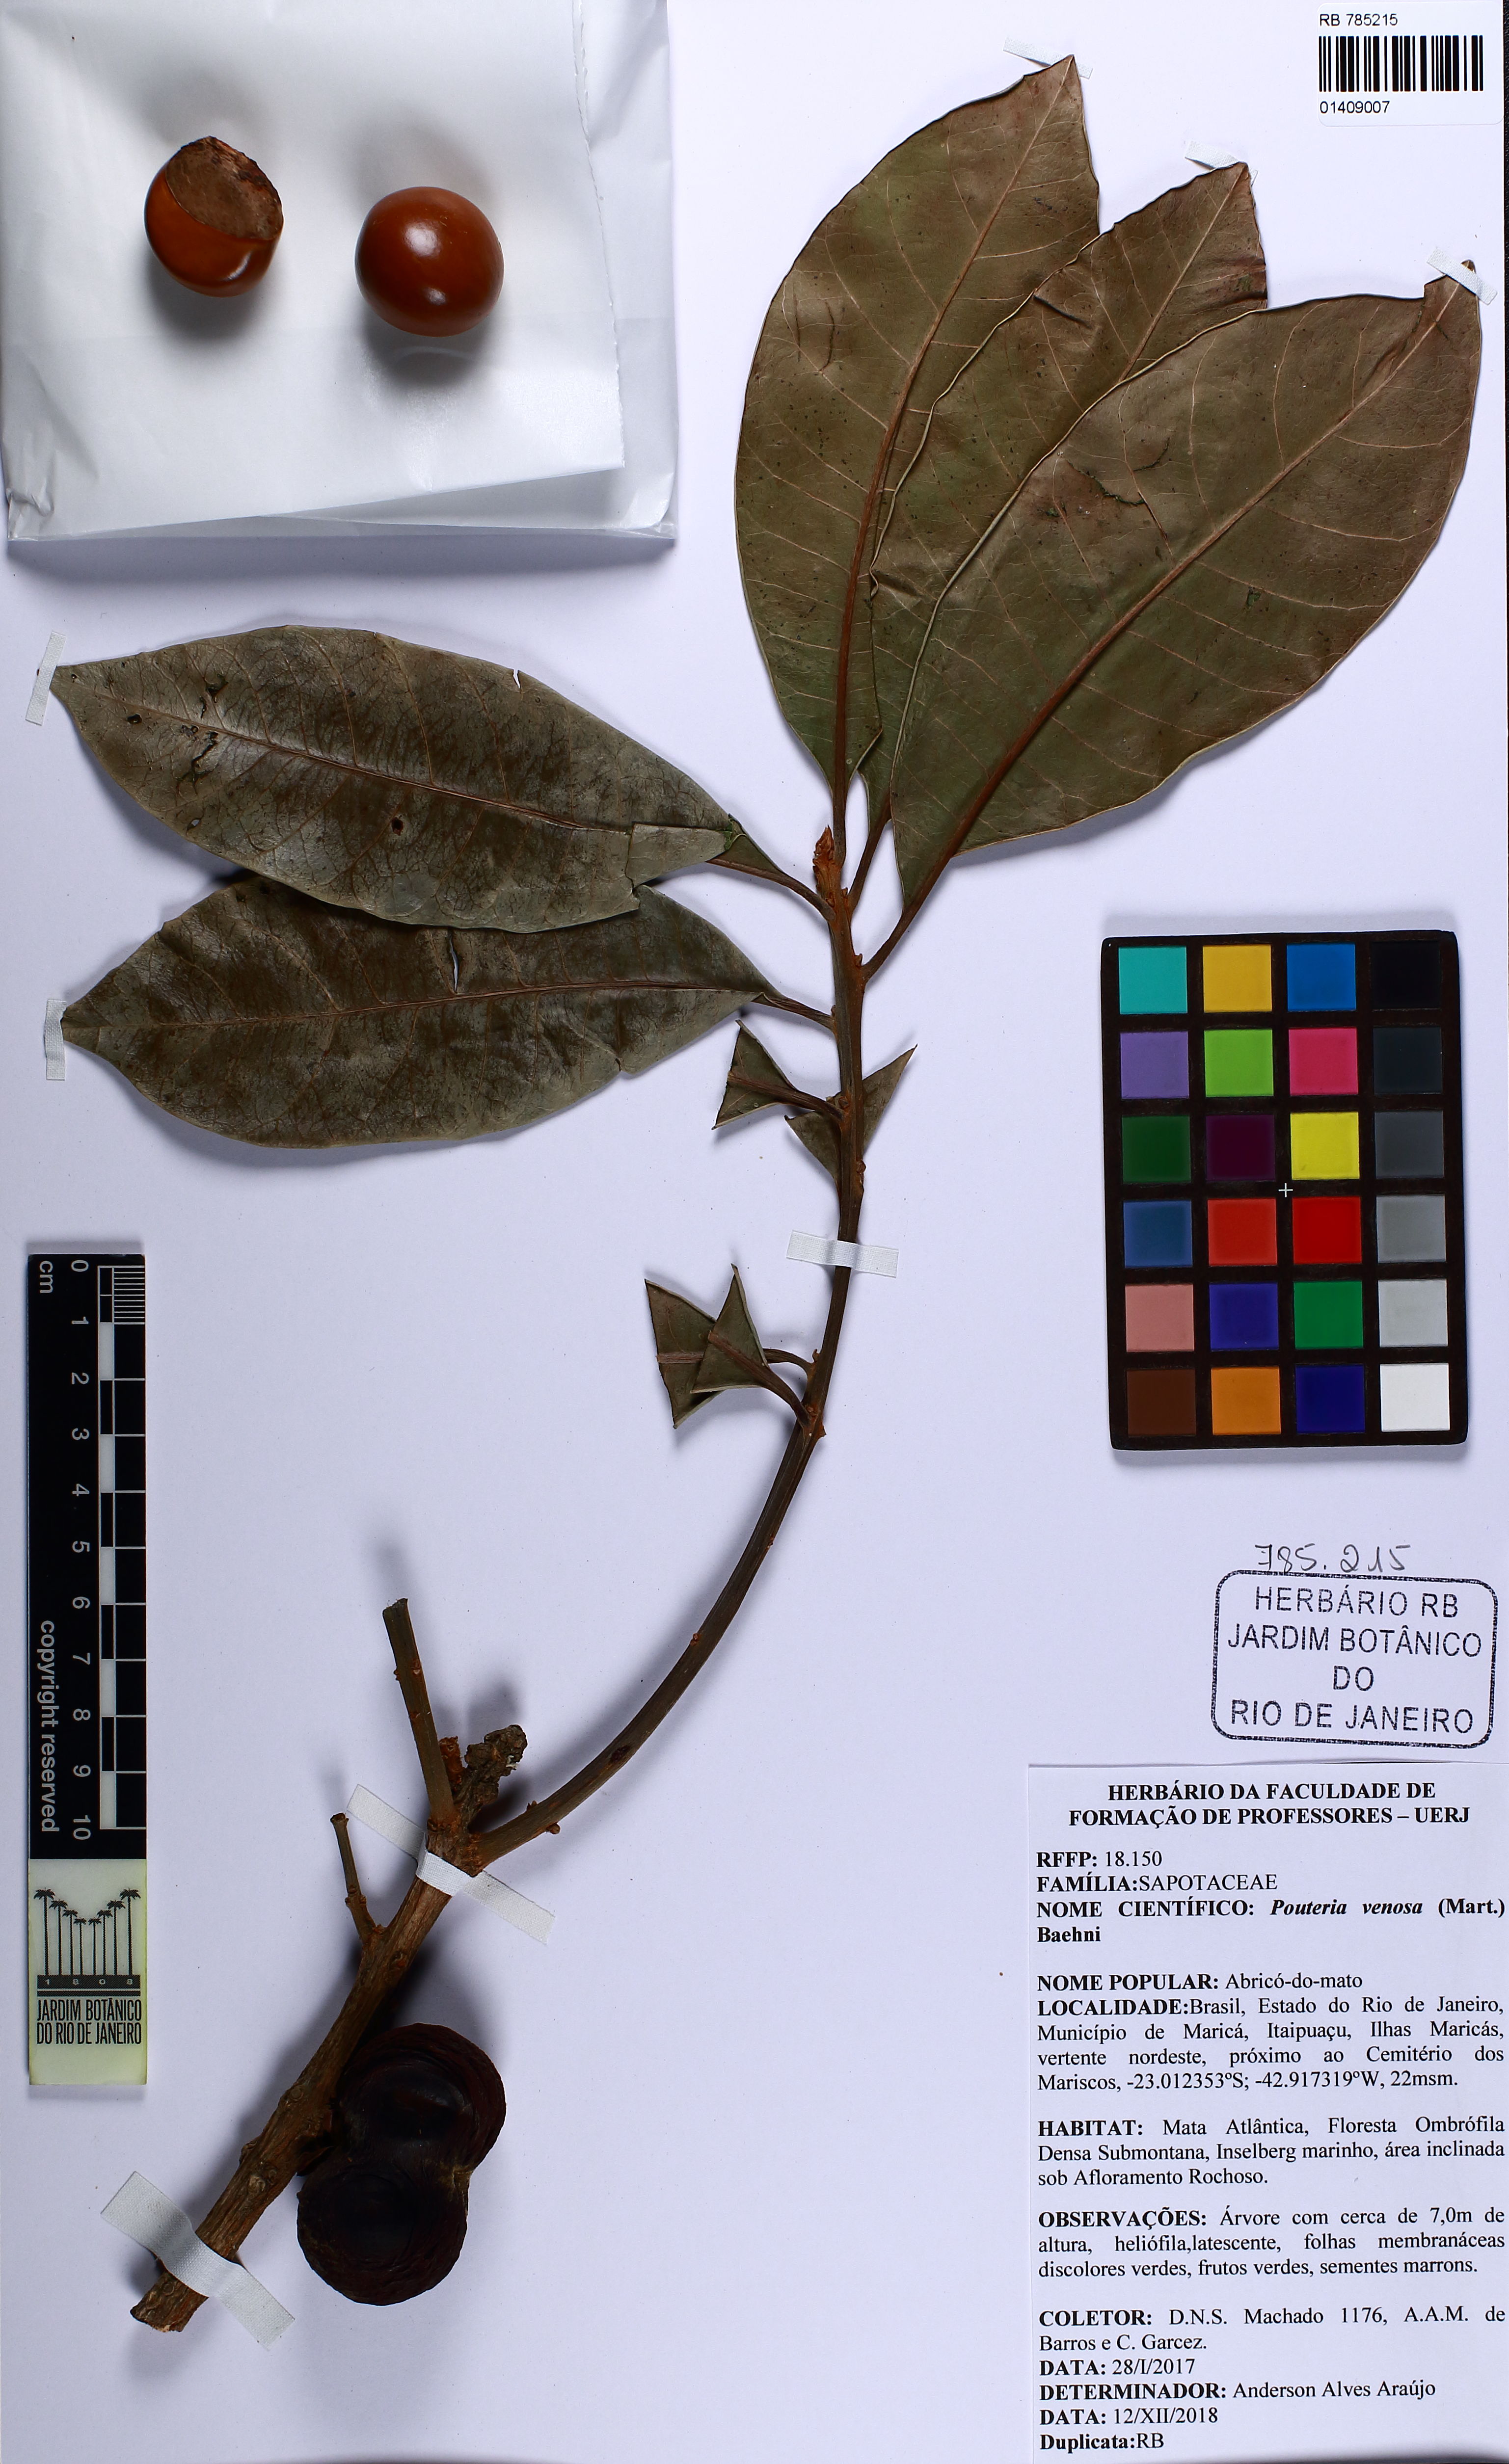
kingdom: Plantae
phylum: Tracheophyta
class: Magnoliopsida
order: Ericales
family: Sapotaceae
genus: Pouteria
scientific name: Pouteria venosa
